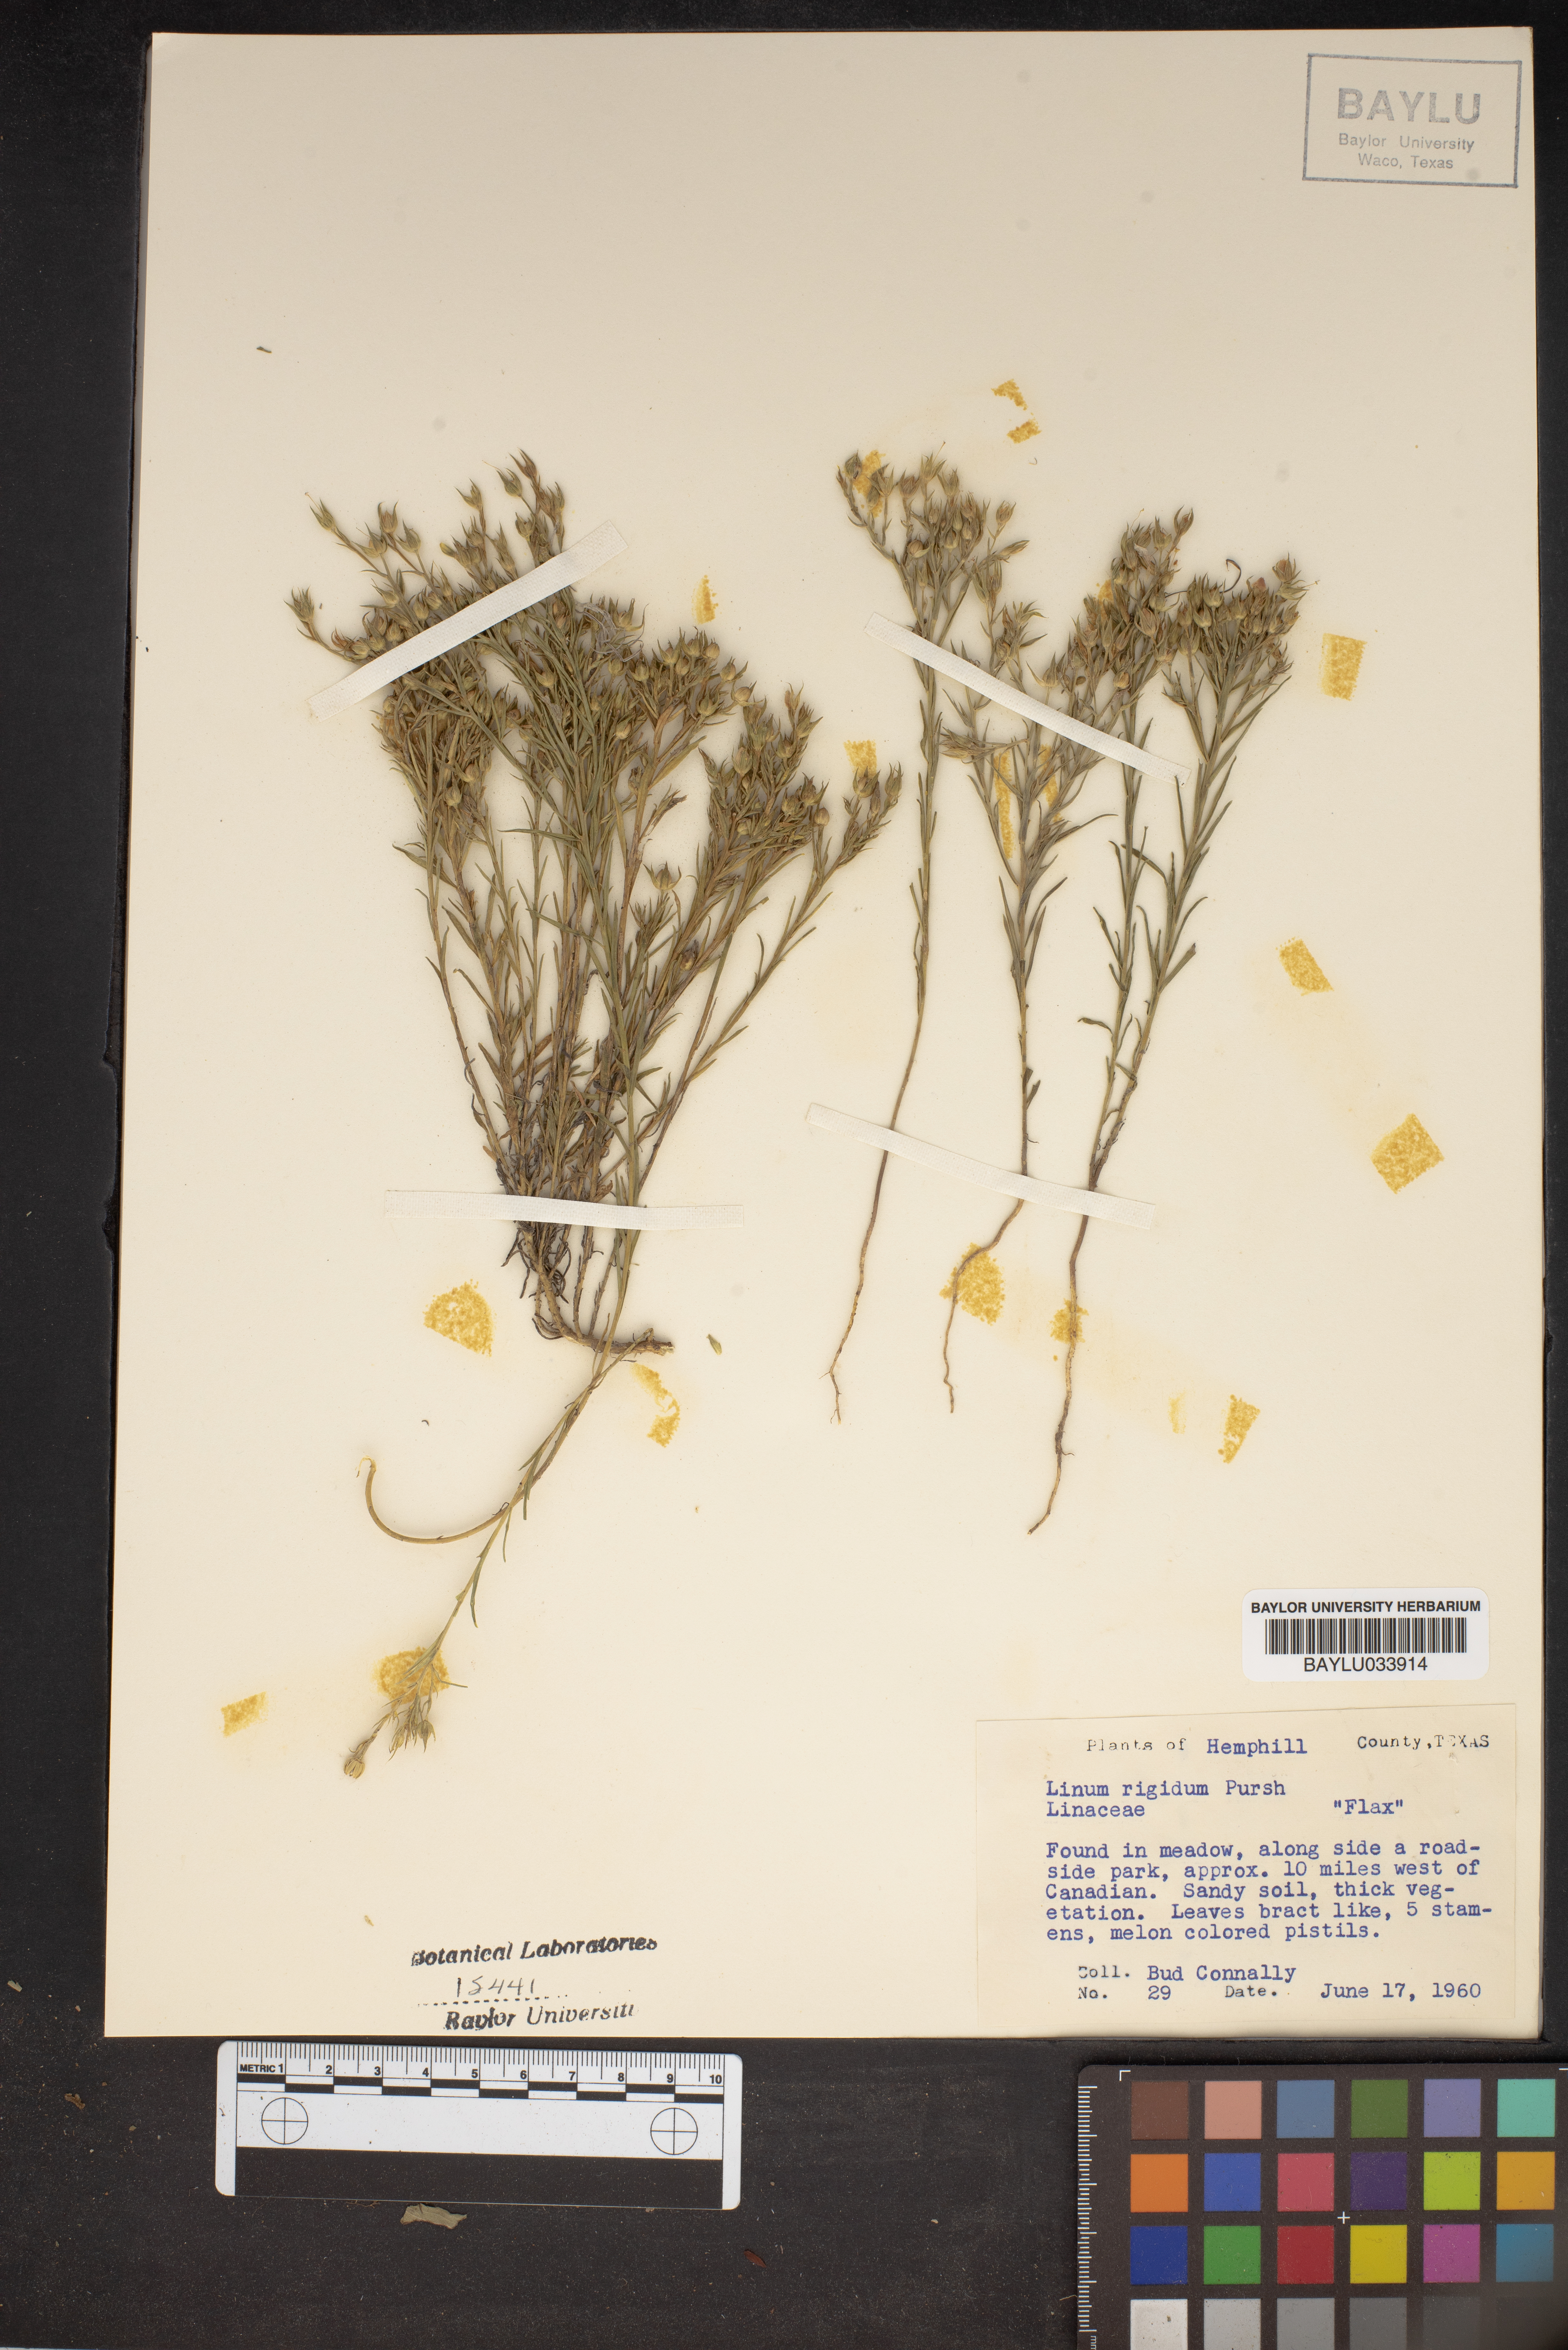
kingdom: Plantae
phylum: Tracheophyta
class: Magnoliopsida
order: Malpighiales
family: Linaceae
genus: Linum
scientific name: Linum rigidum
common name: Stiff-stem flax
